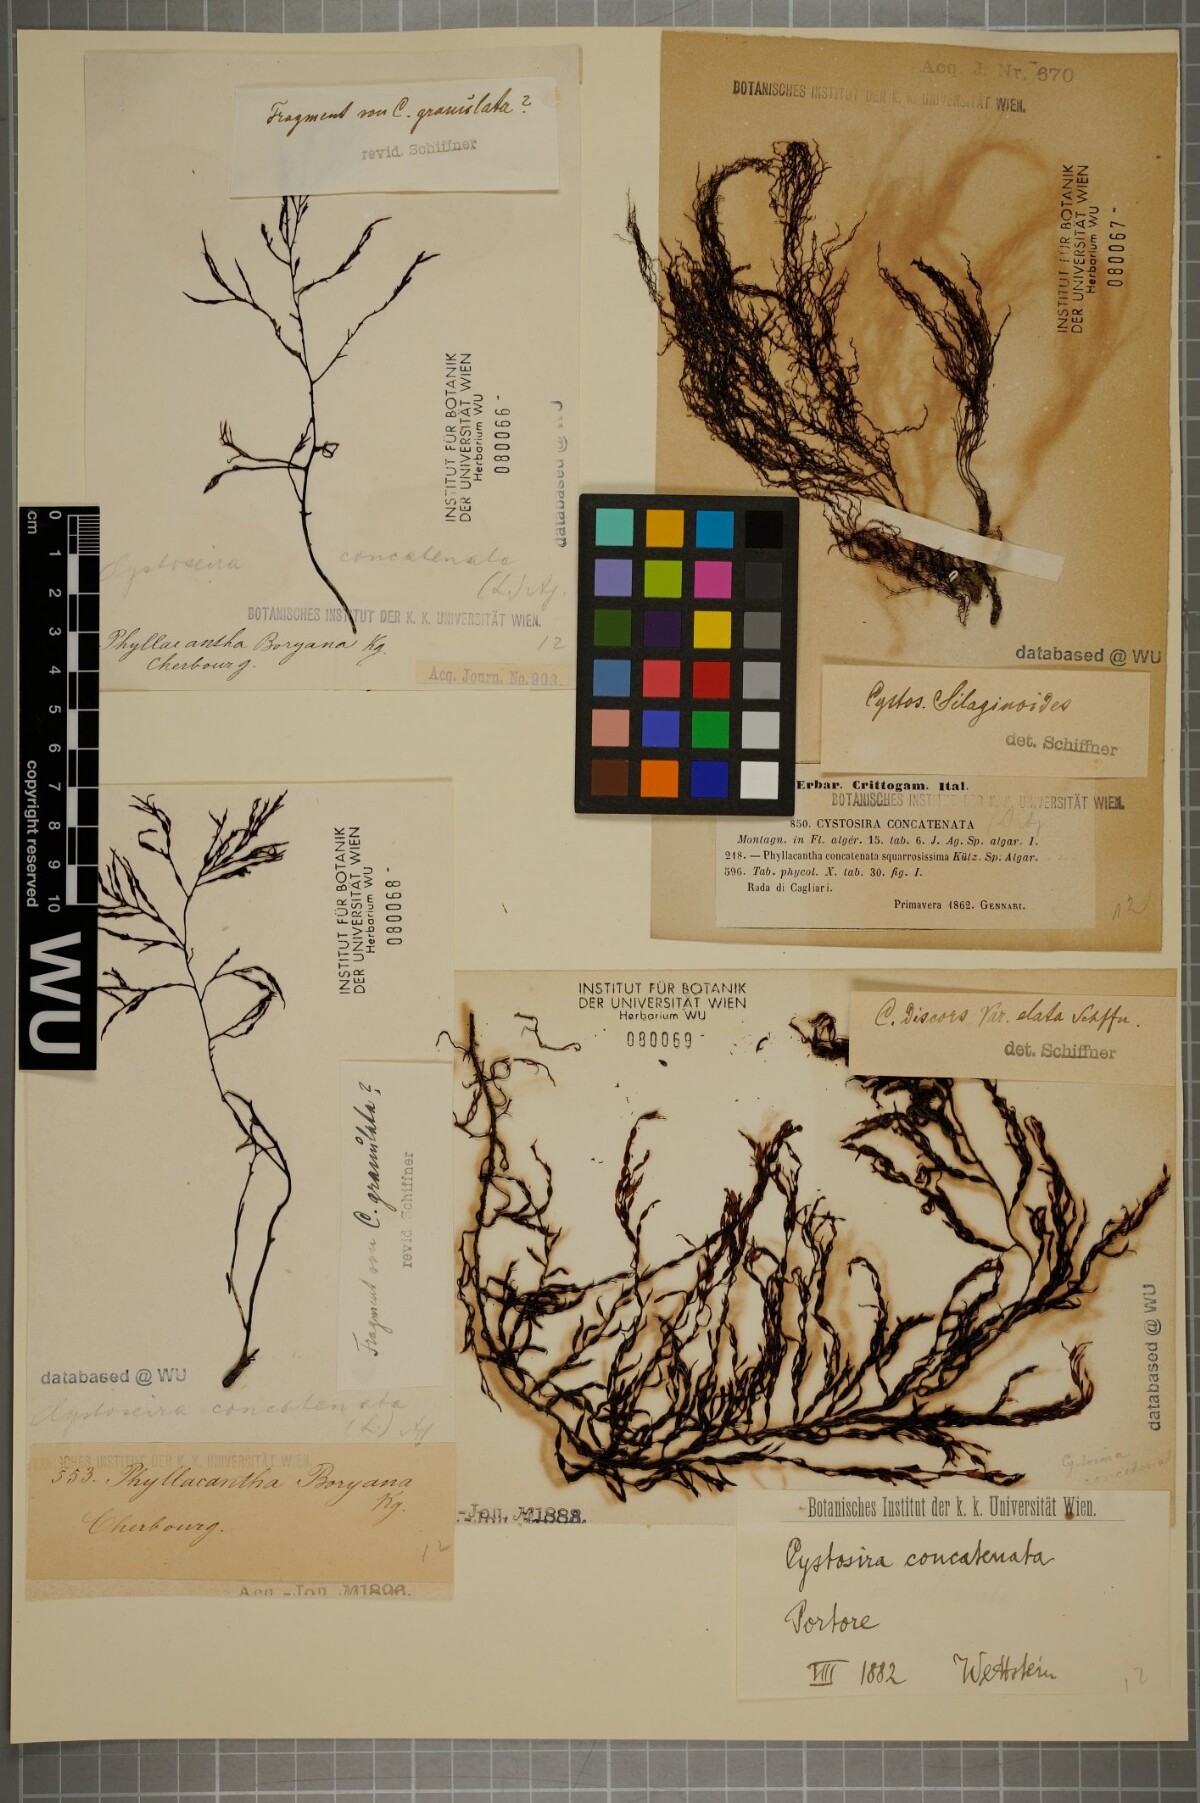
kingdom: Chromista
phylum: Ochrophyta
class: Phaeophyceae
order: Fucales
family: Sargassaceae
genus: Cystoseira
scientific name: Cystoseira foeniculacea
